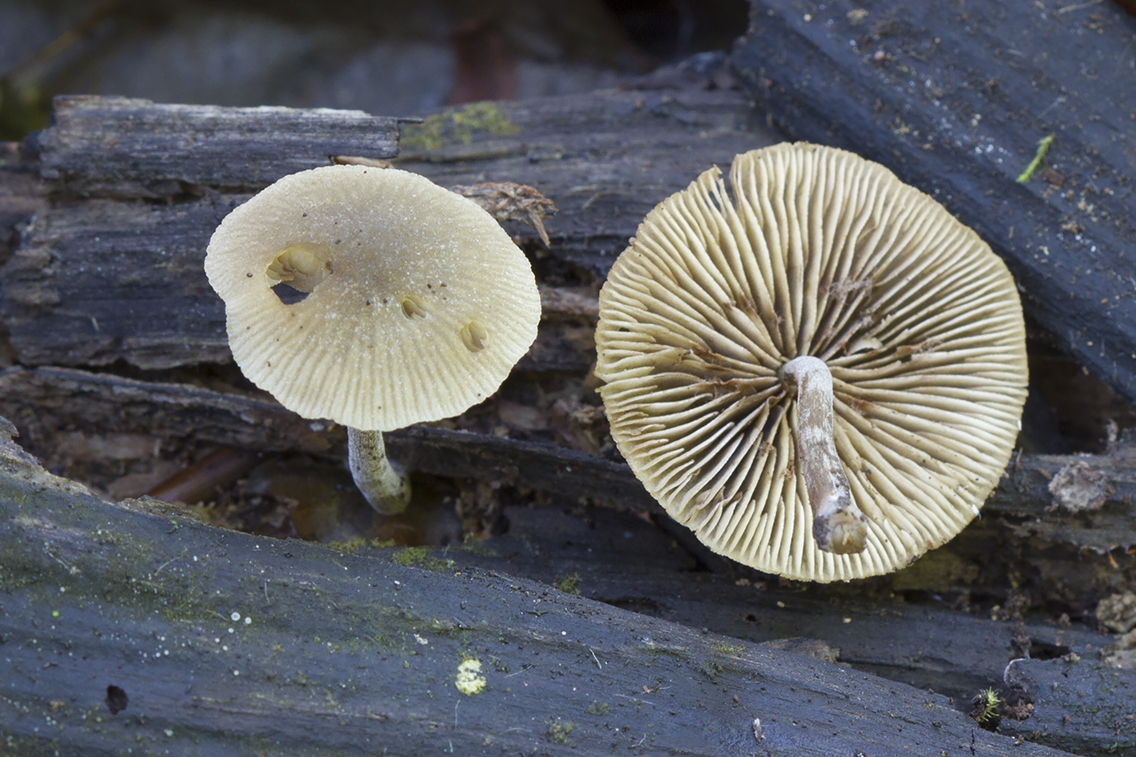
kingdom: Fungi
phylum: Basidiomycota
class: Agaricomycetes
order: Agaricales
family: Crepidotaceae
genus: Simocybe
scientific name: Simocybe centunculus
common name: enlig skyggehat
